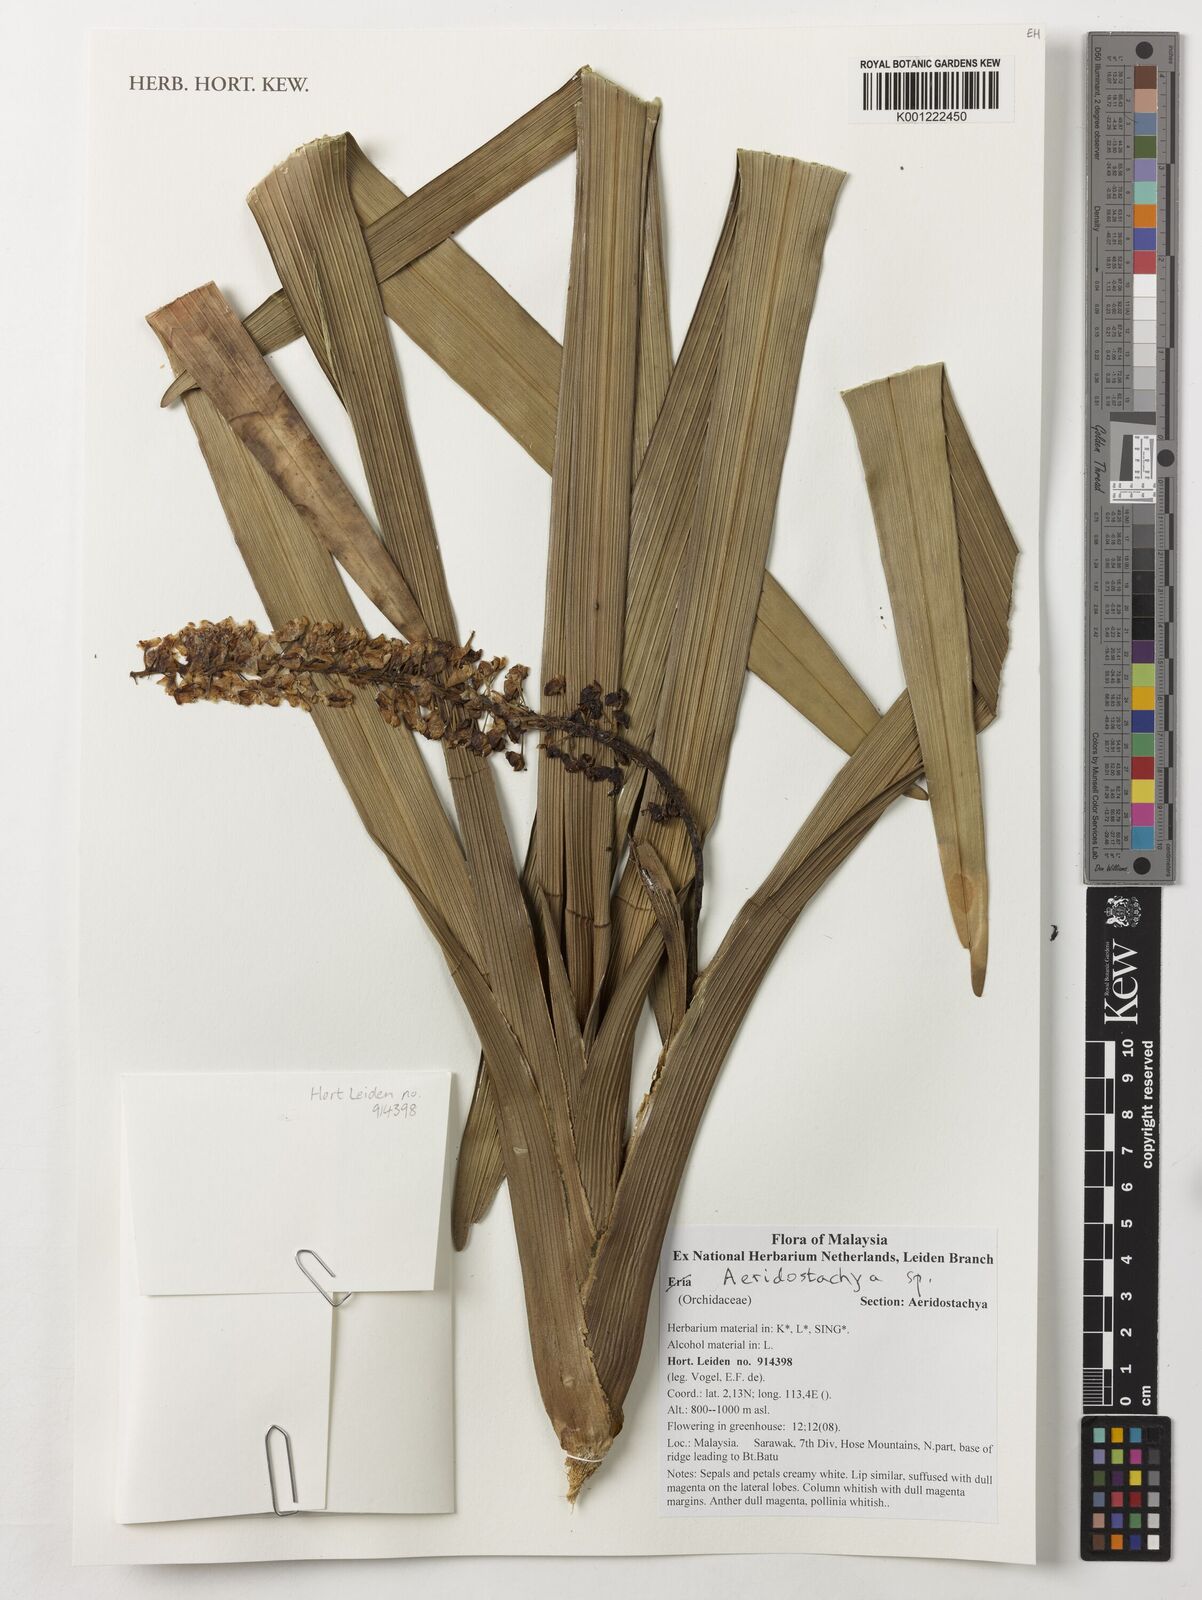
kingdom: Plantae
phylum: Tracheophyta
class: Liliopsida
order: Asparagales
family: Orchidaceae
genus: Aeridostachya
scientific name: Aeridostachya
